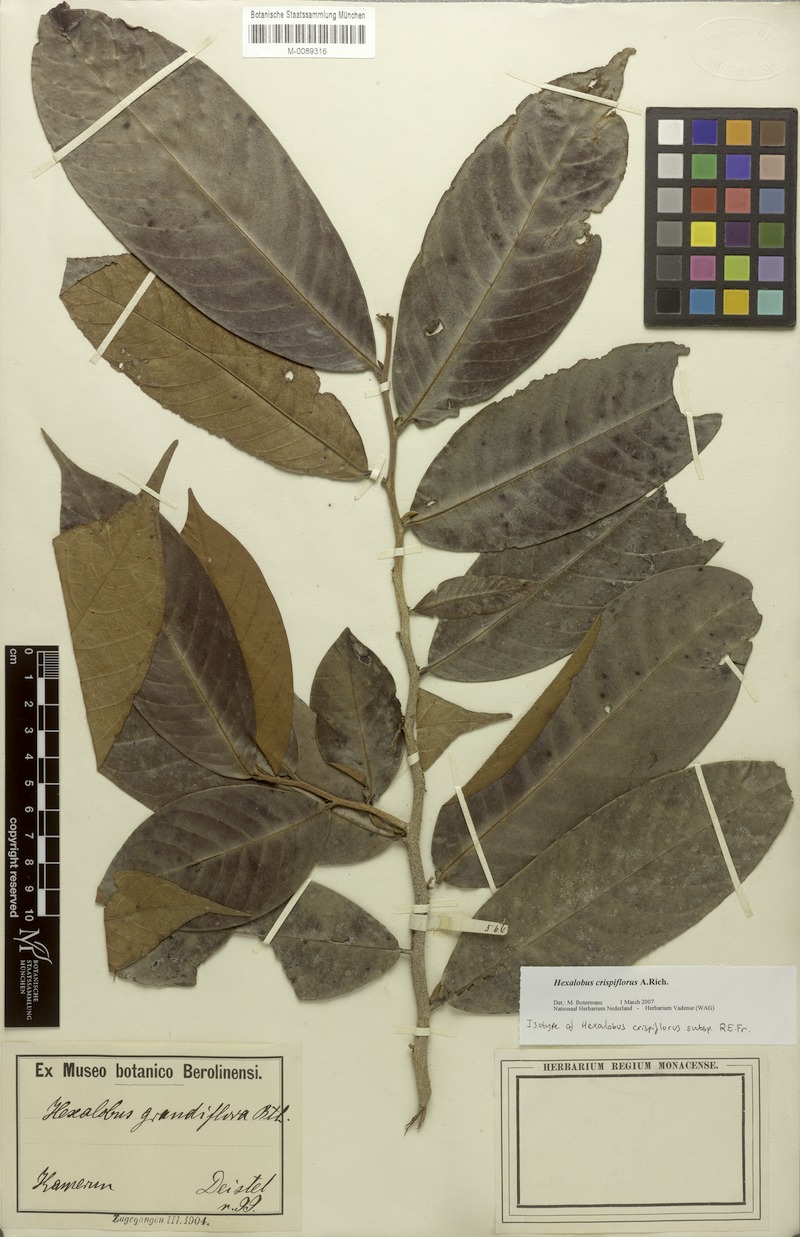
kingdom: Plantae
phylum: Tracheophyta
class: Magnoliopsida
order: Magnoliales
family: Annonaceae
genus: Hexalobus
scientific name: Hexalobus crispiflorus
